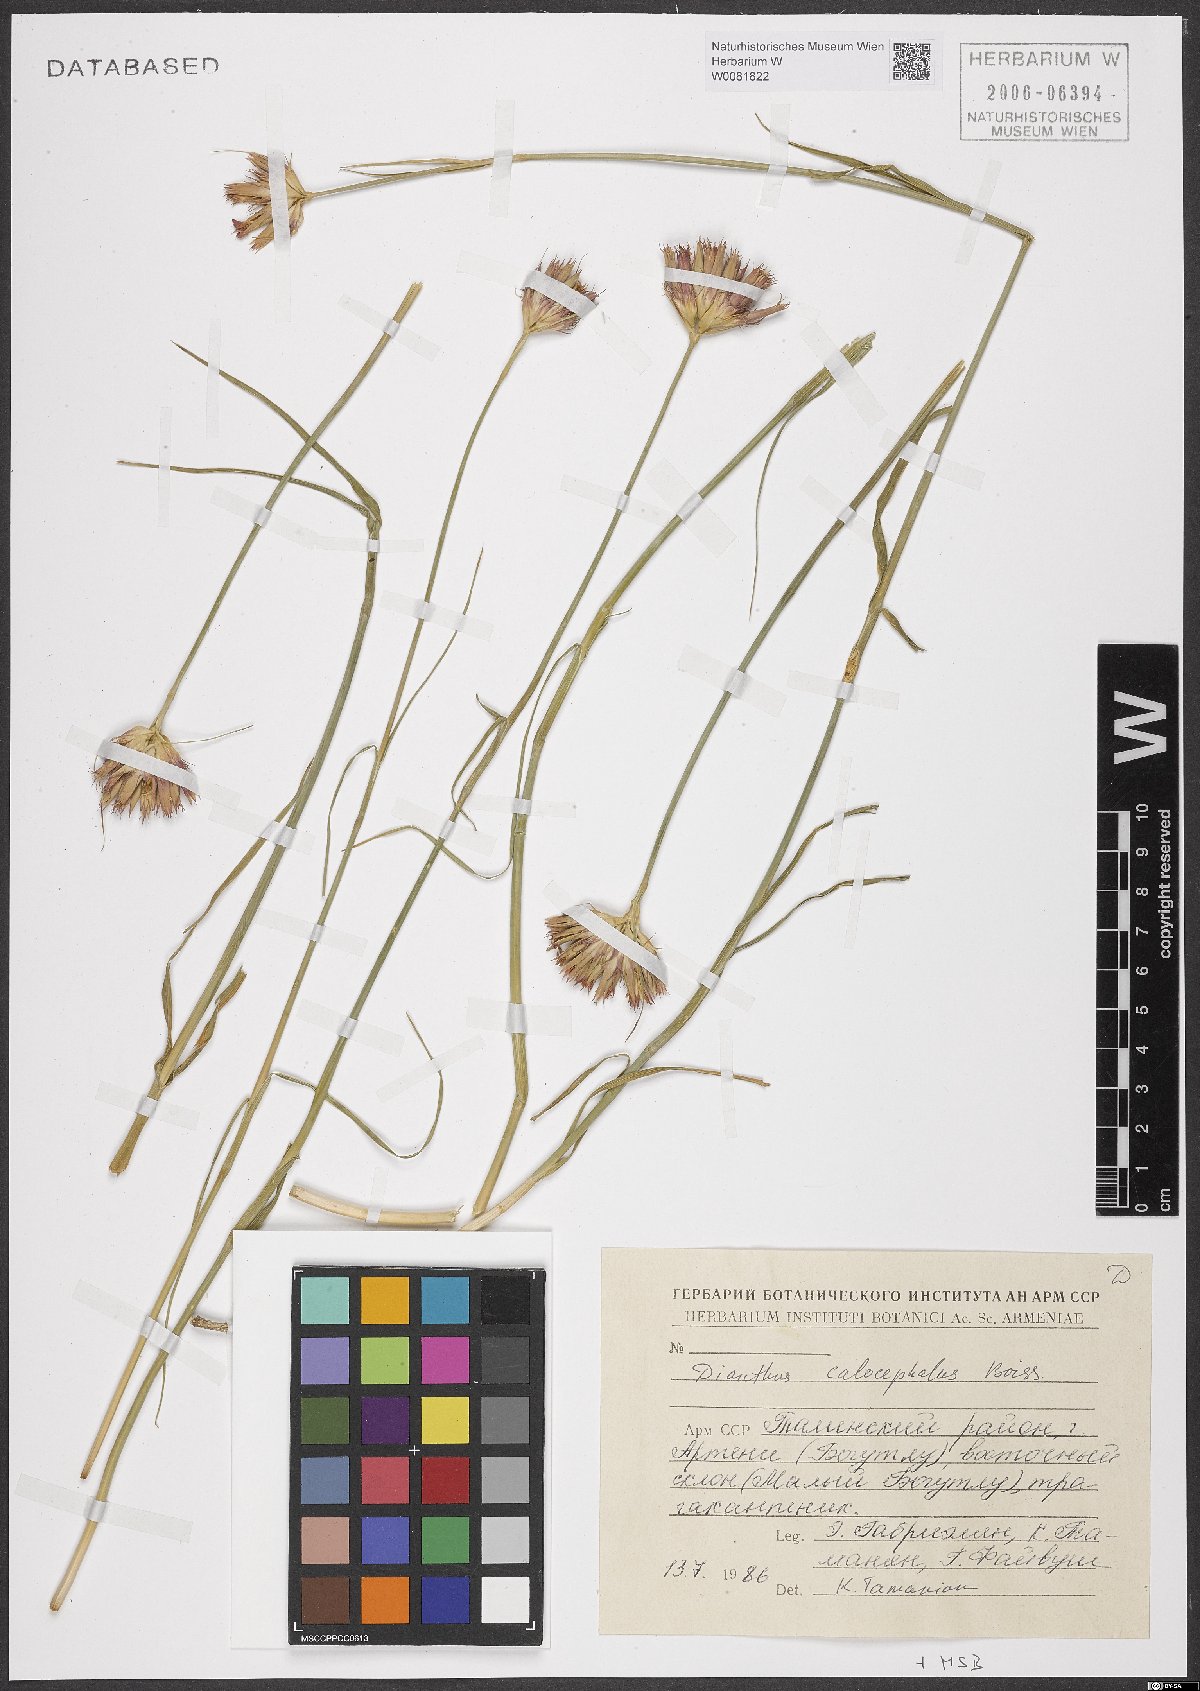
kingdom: Plantae
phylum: Tracheophyta
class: Magnoliopsida
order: Caryophyllales
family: Caryophyllaceae
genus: Dianthus
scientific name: Dianthus cruentus
